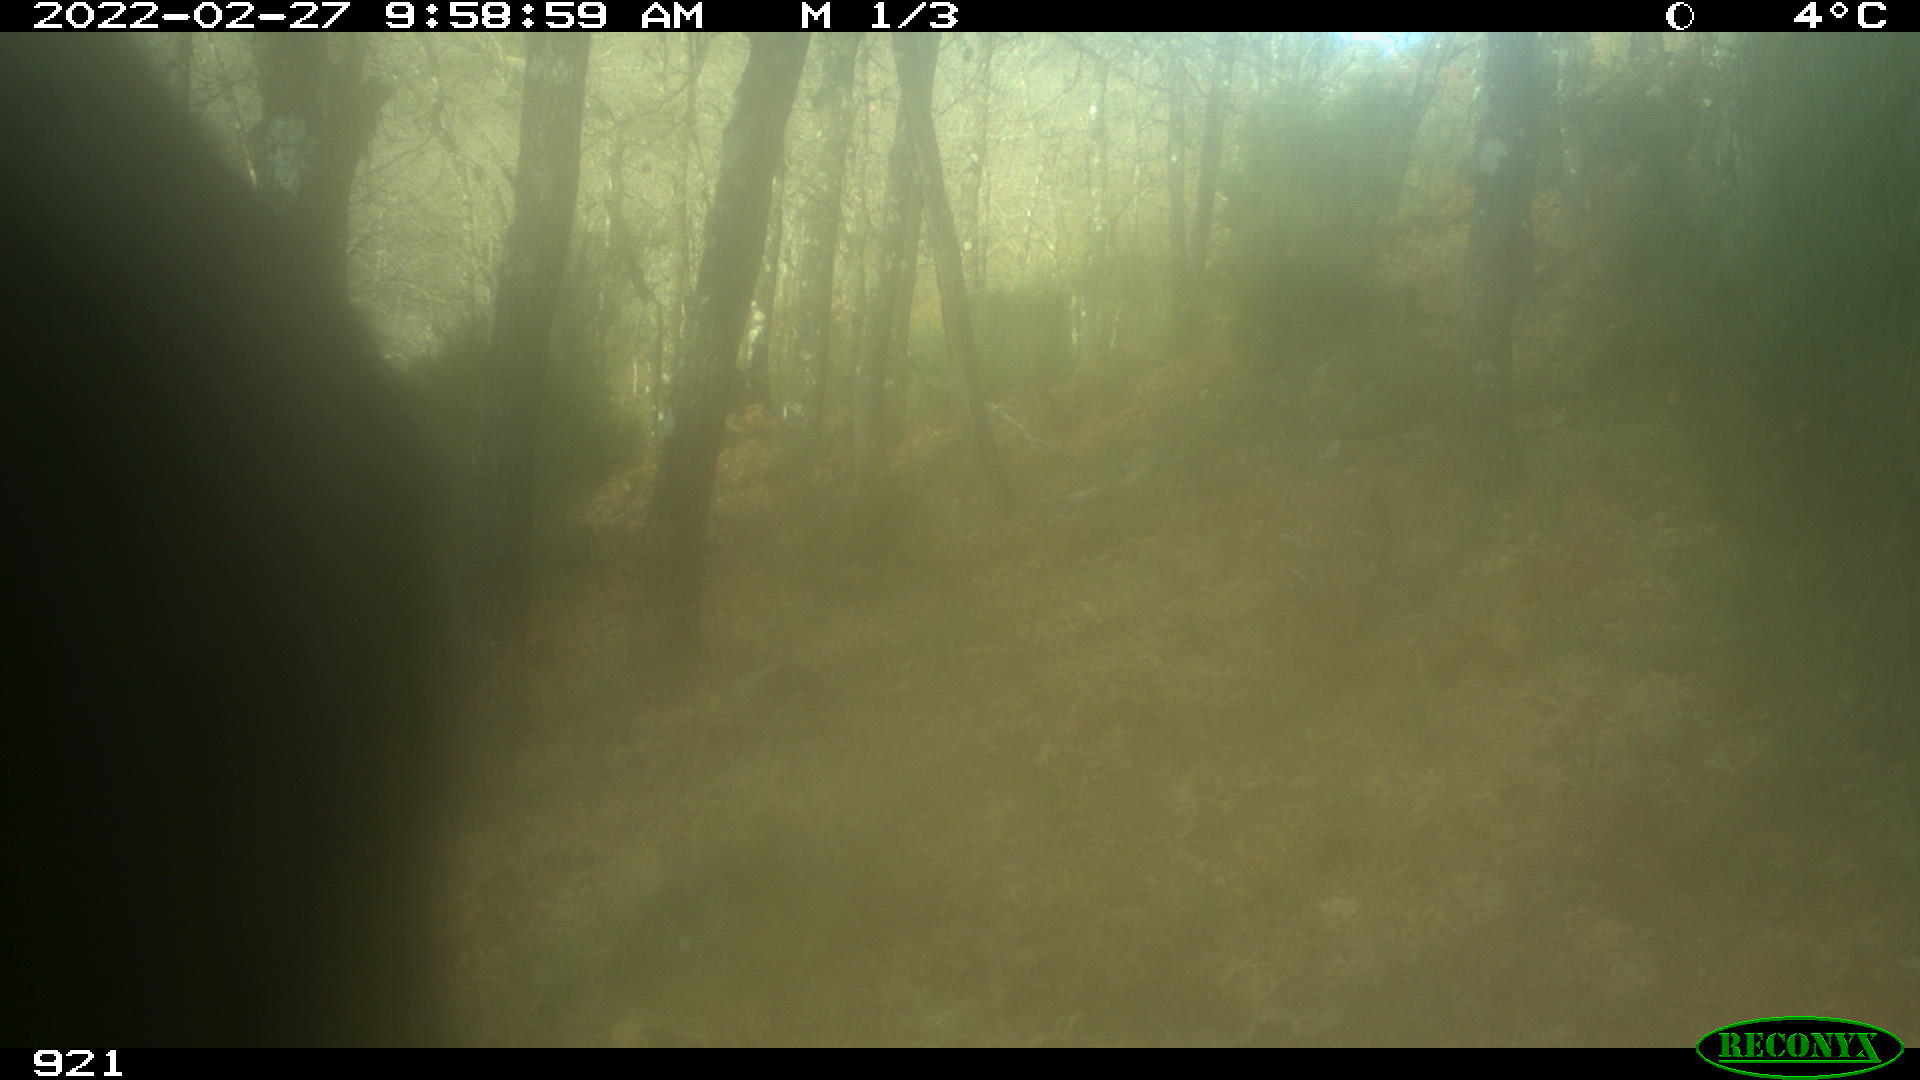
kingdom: Animalia
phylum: Chordata
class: Mammalia
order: Perissodactyla
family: Equidae
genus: Equus
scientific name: Equus caballus
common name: Horse
